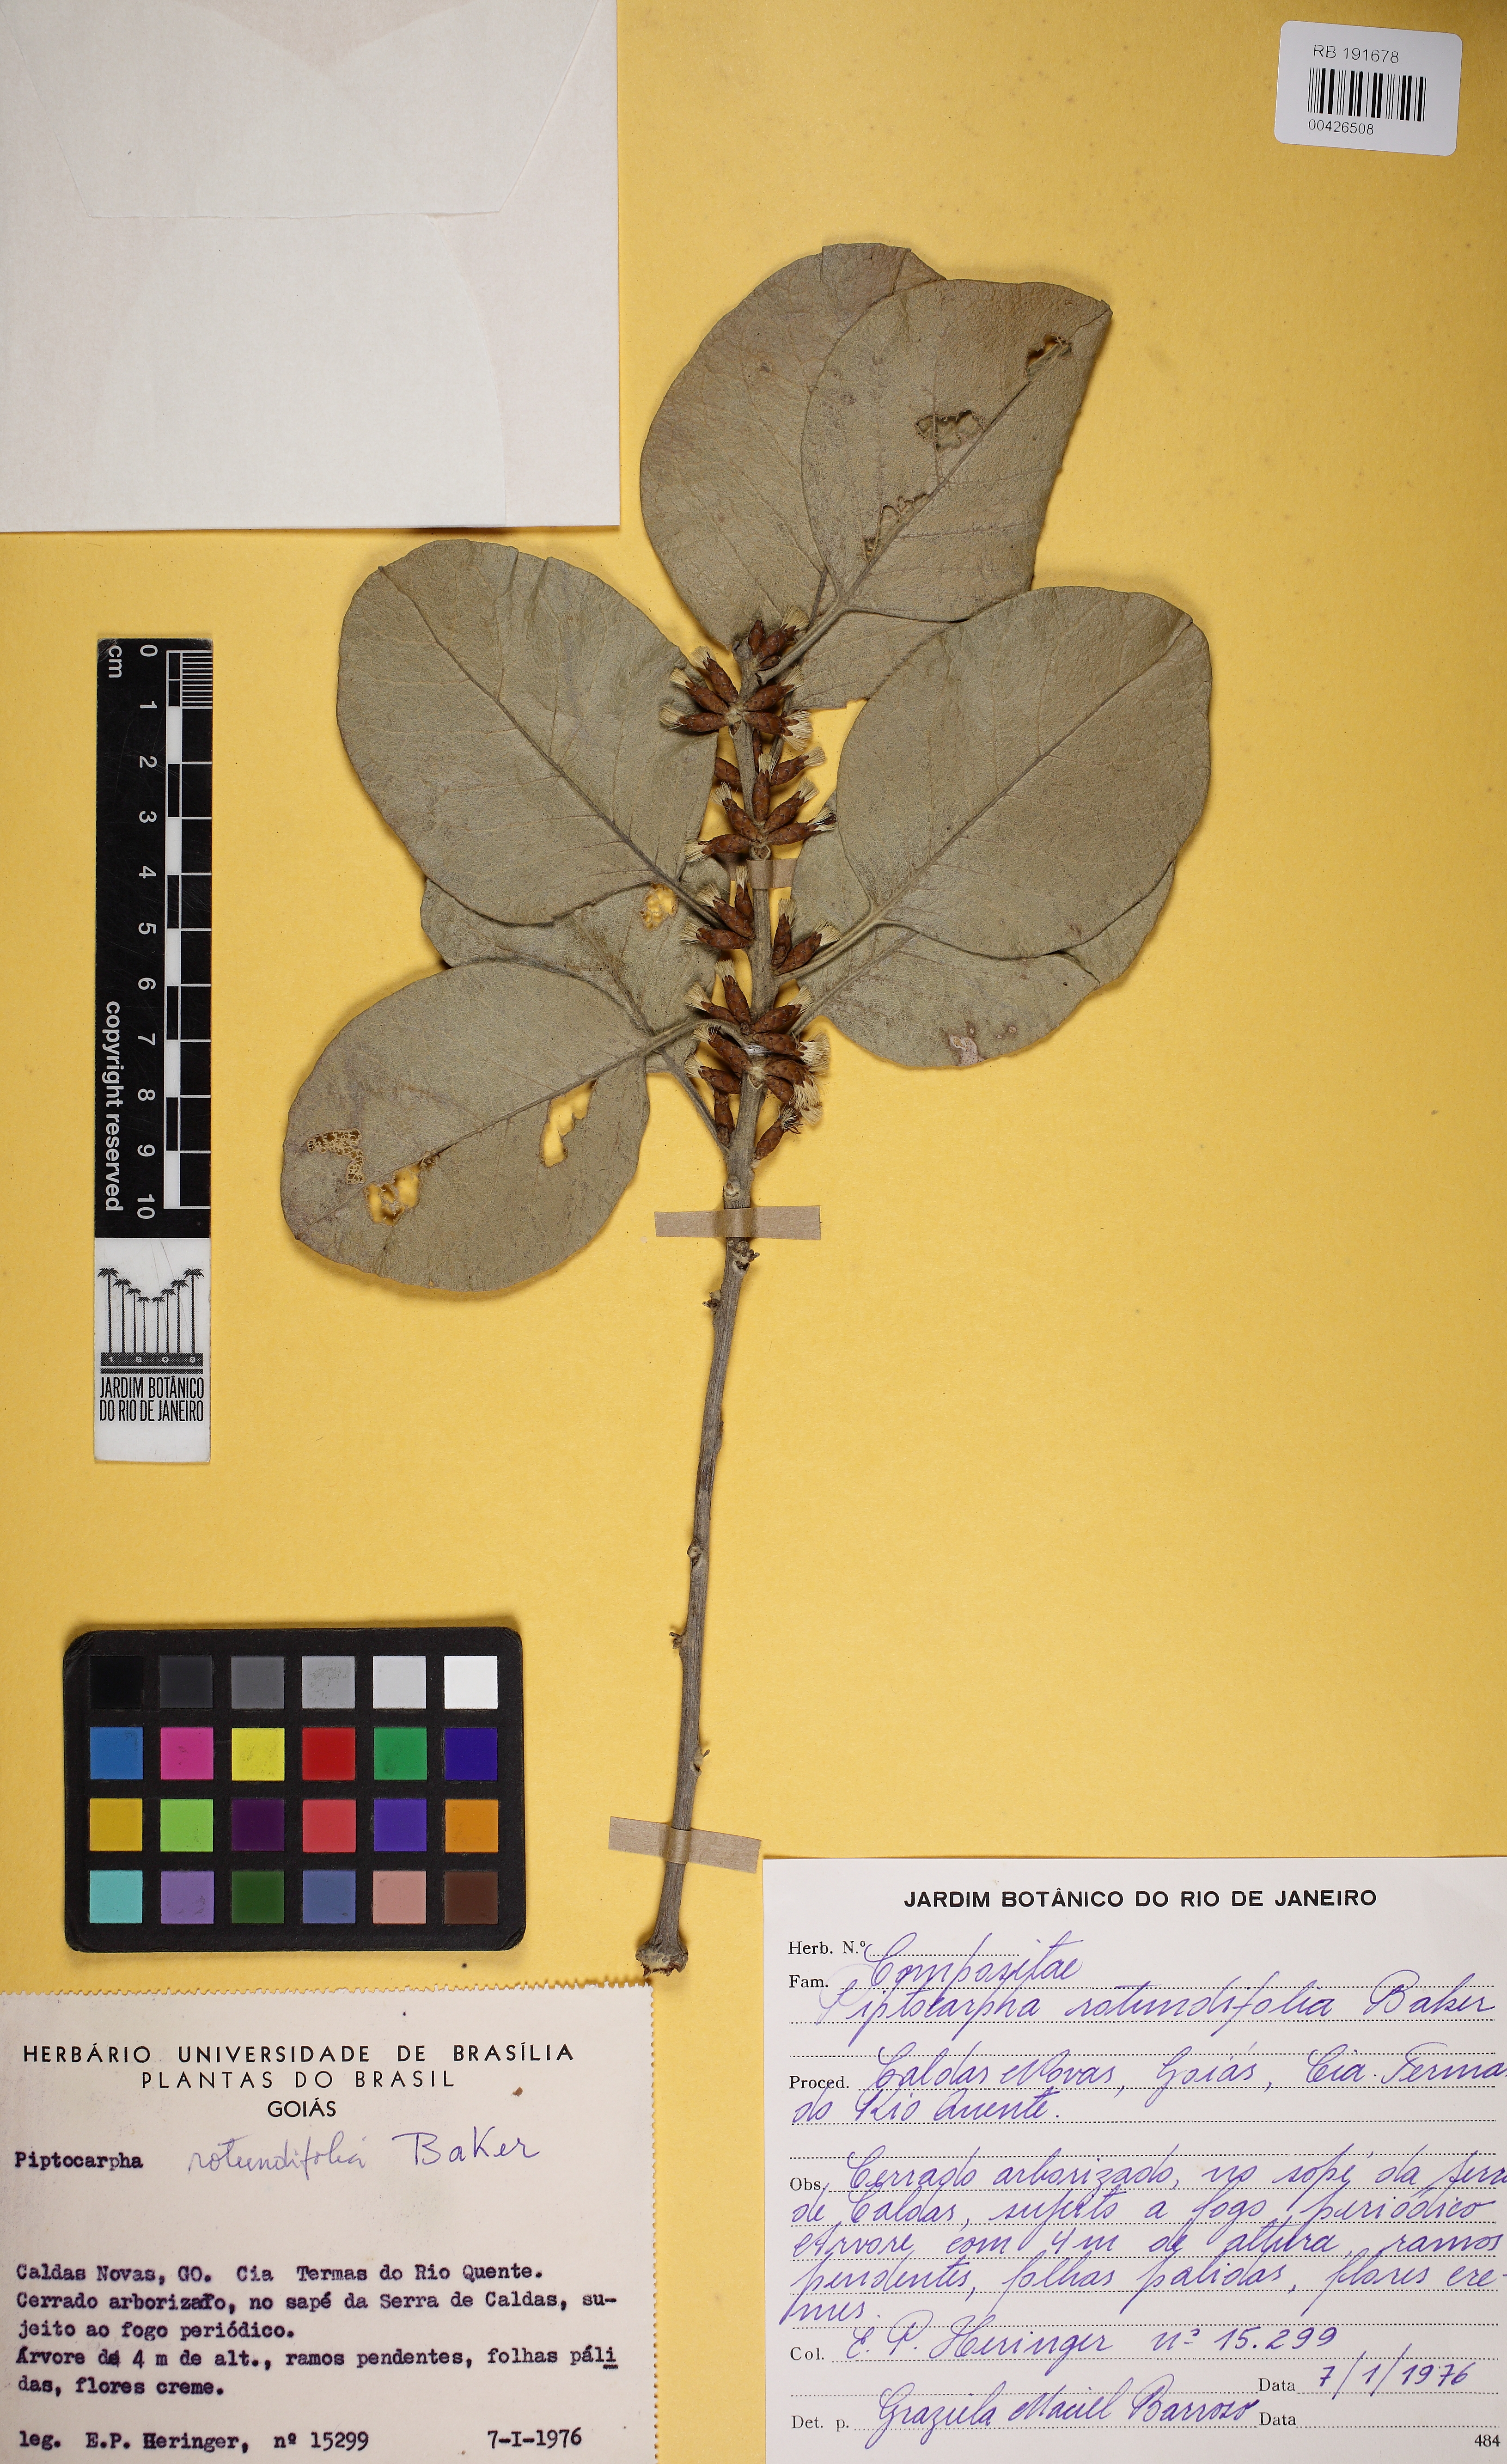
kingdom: Plantae
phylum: Tracheophyta
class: Magnoliopsida
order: Asterales
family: Asteraceae
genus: Piptocarpha
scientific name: Piptocarpha rotundifolia
